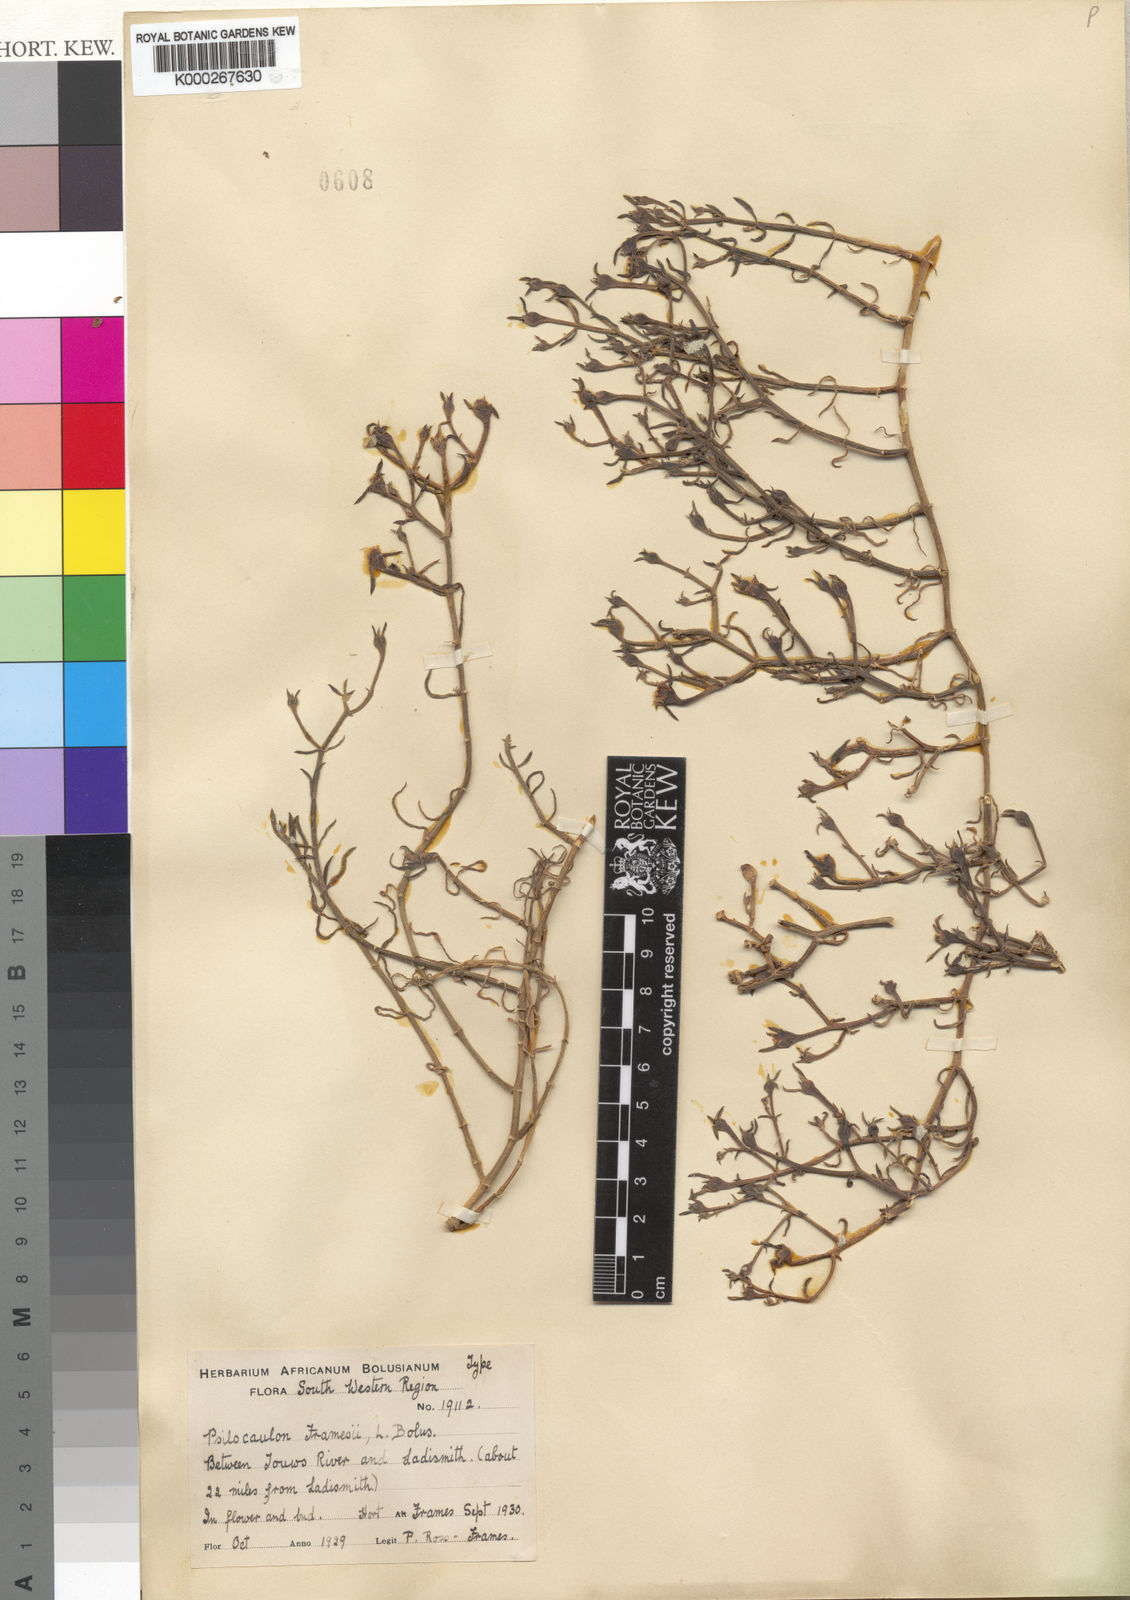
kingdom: Plantae
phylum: Tracheophyta
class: Magnoliopsida
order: Caryophyllales
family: Aizoaceae
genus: Mesembryanthemum
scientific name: Mesembryanthemum junceum
